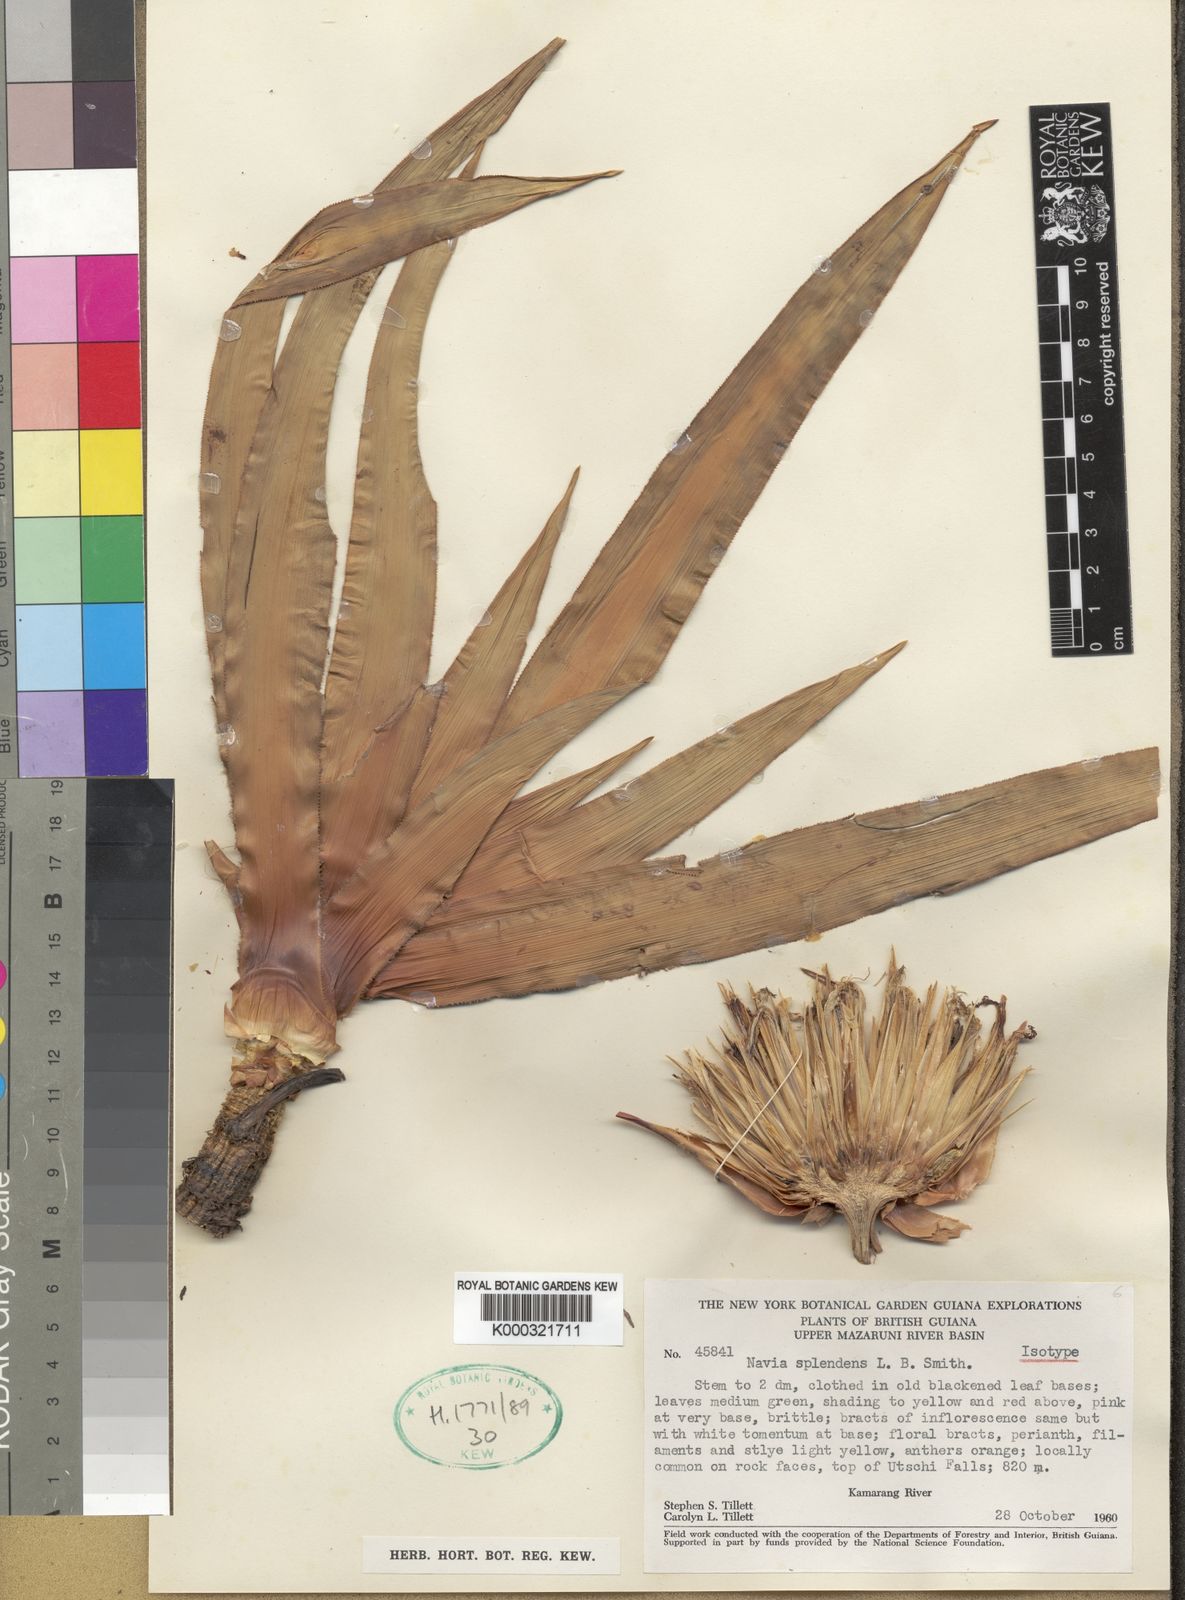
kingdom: Plantae
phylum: Tracheophyta
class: Liliopsida
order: Poales
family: Bromeliaceae
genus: Navia
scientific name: Navia splendens
